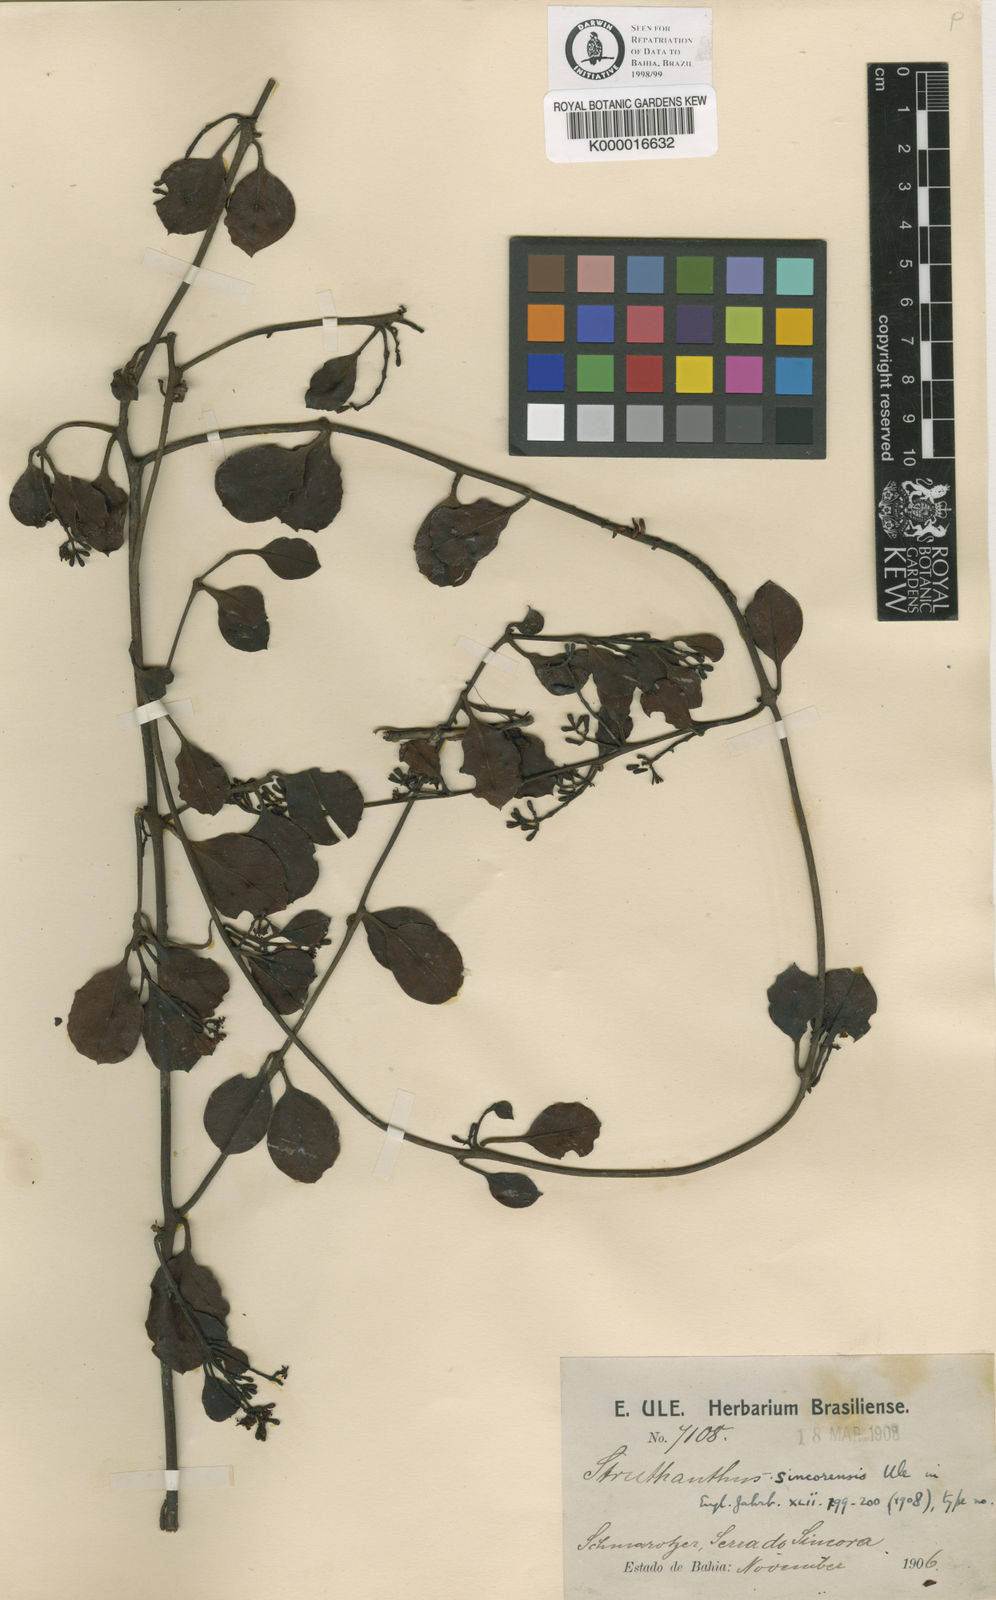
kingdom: Plantae
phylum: Tracheophyta
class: Magnoliopsida
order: Santalales
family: Loranthaceae
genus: Struthanthus
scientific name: Struthanthus sincorensis
